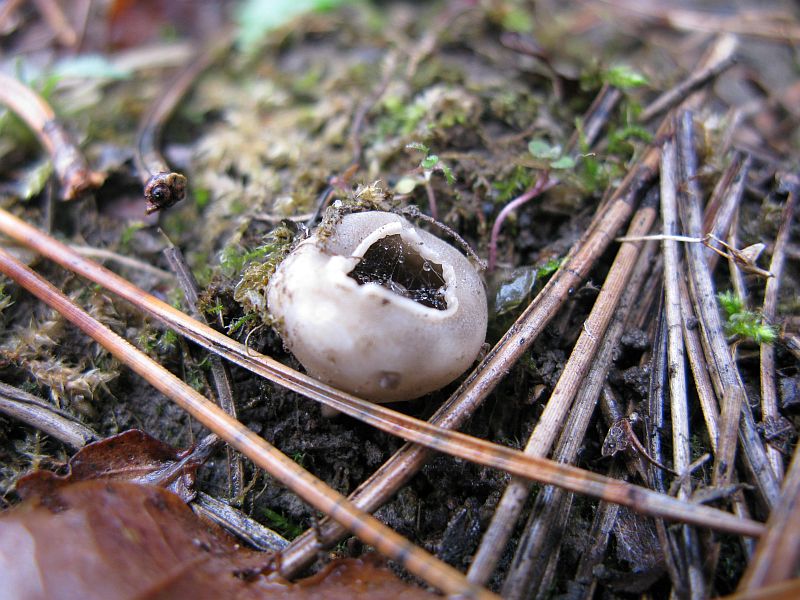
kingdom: Fungi
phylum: Ascomycota
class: Pezizomycetes
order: Pezizales
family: Helvellaceae
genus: Dissingia
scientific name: Dissingia leucomelaena
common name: sorthvid foldhat
